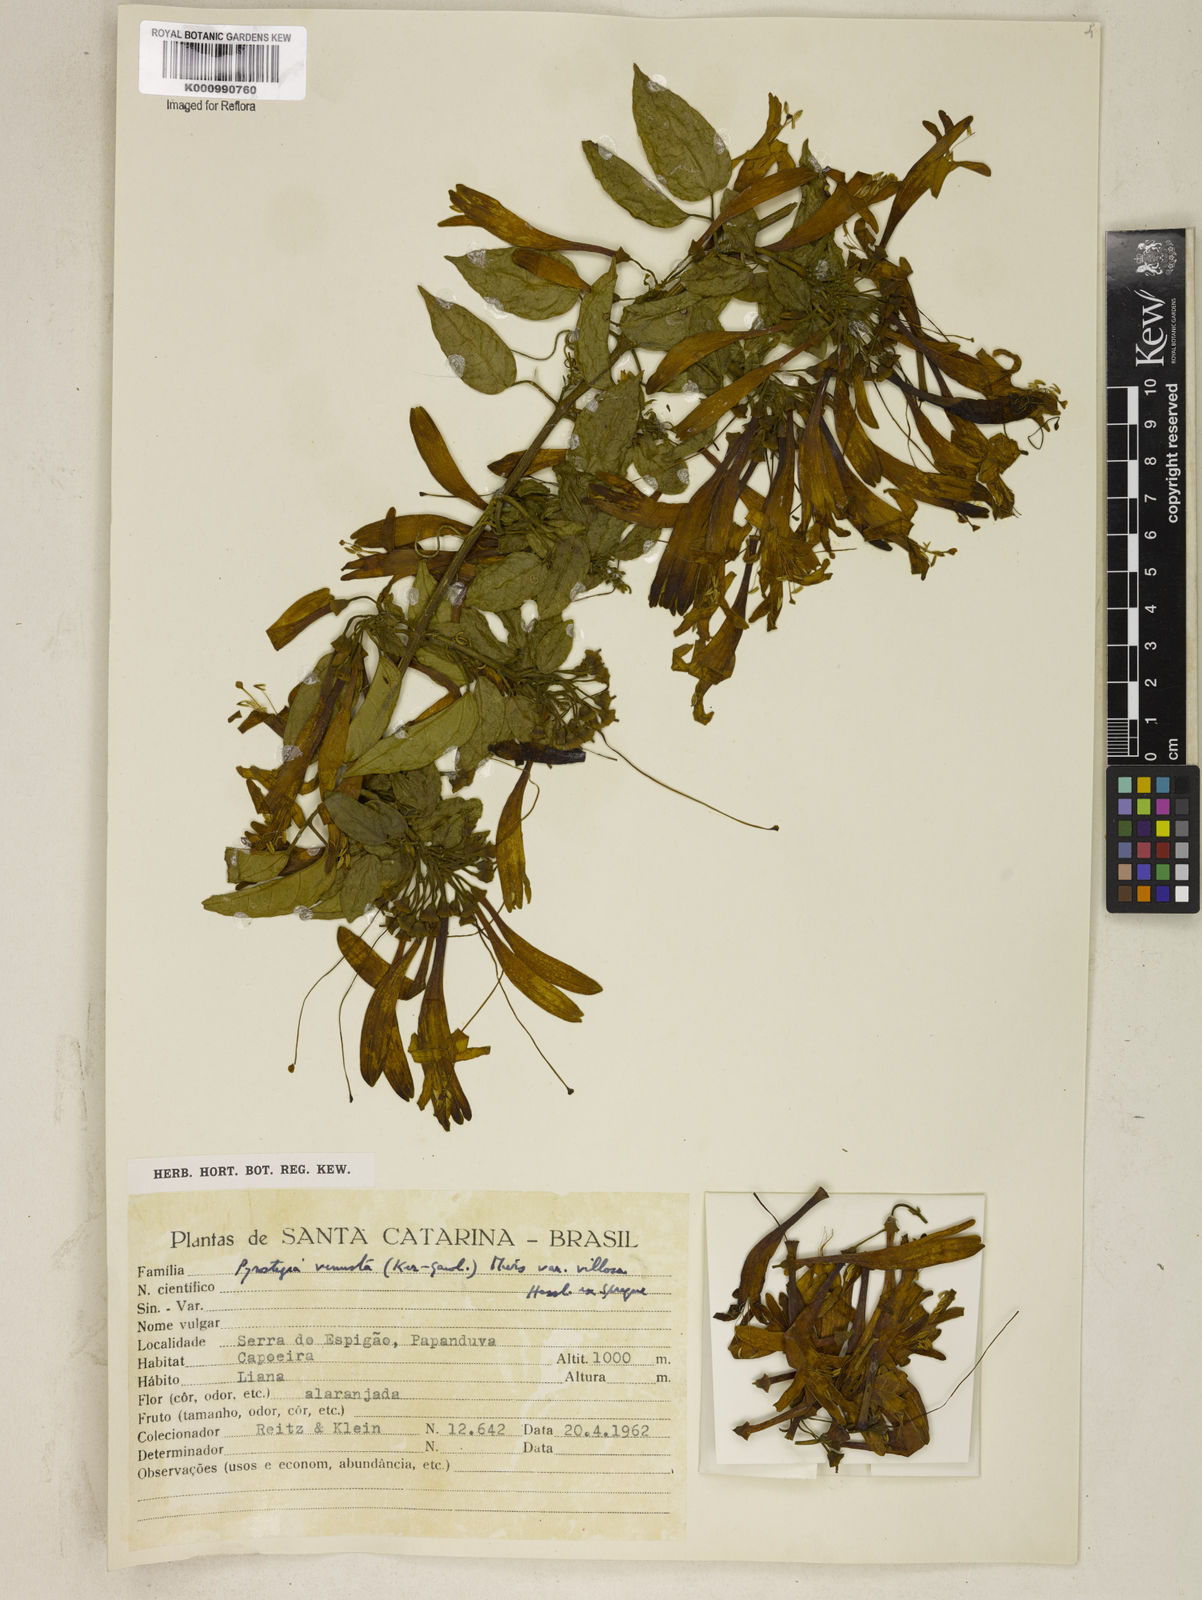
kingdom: Plantae
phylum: Tracheophyta
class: Magnoliopsida
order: Lamiales
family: Bignoniaceae
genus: Pyrostegia
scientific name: Pyrostegia venusta
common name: Flamevine
